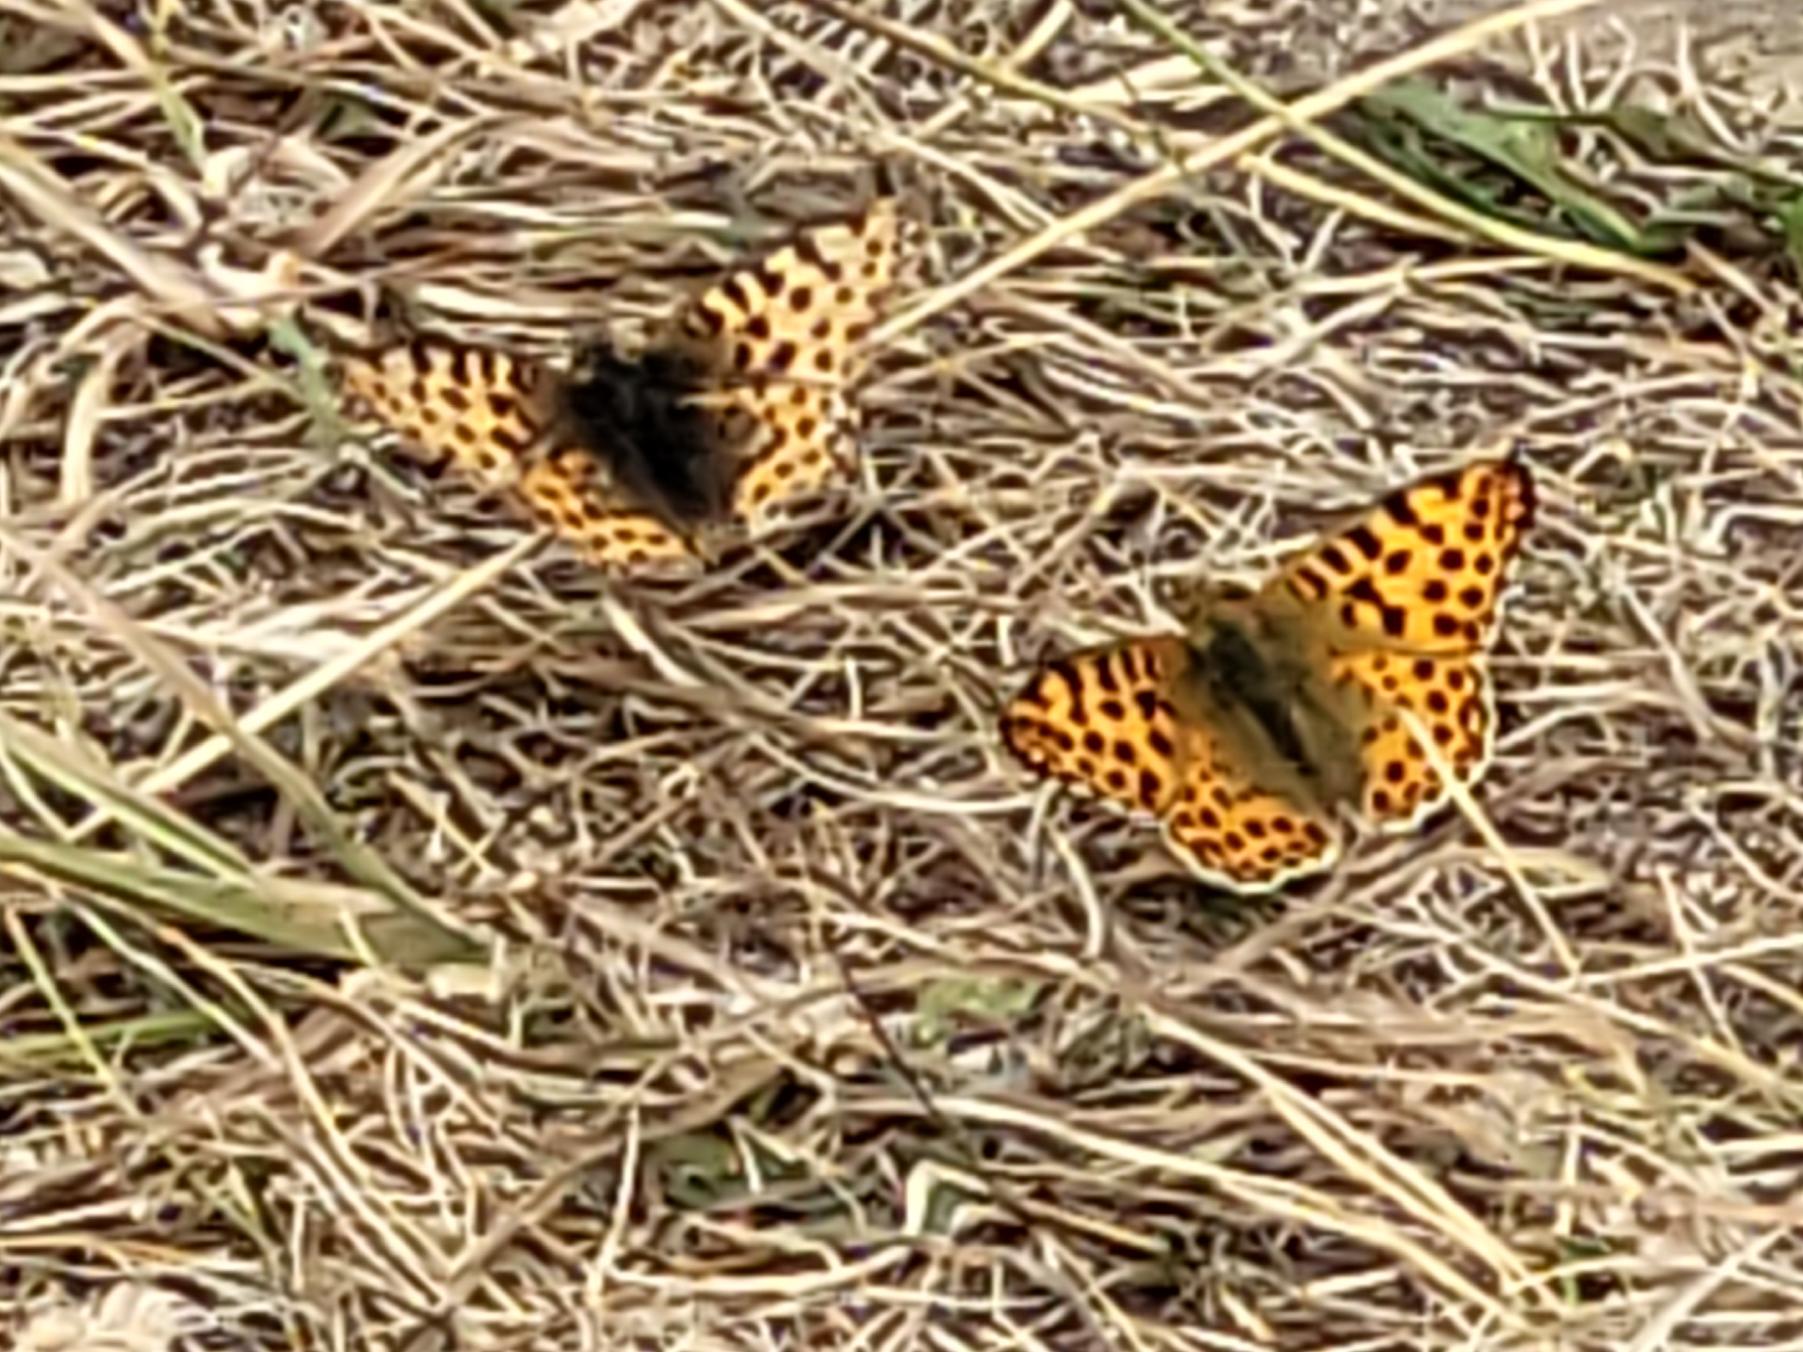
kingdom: Animalia
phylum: Arthropoda
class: Insecta
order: Lepidoptera
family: Nymphalidae
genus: Issoria
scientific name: Issoria lathonia
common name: Storplettet perlemorsommerfugl
